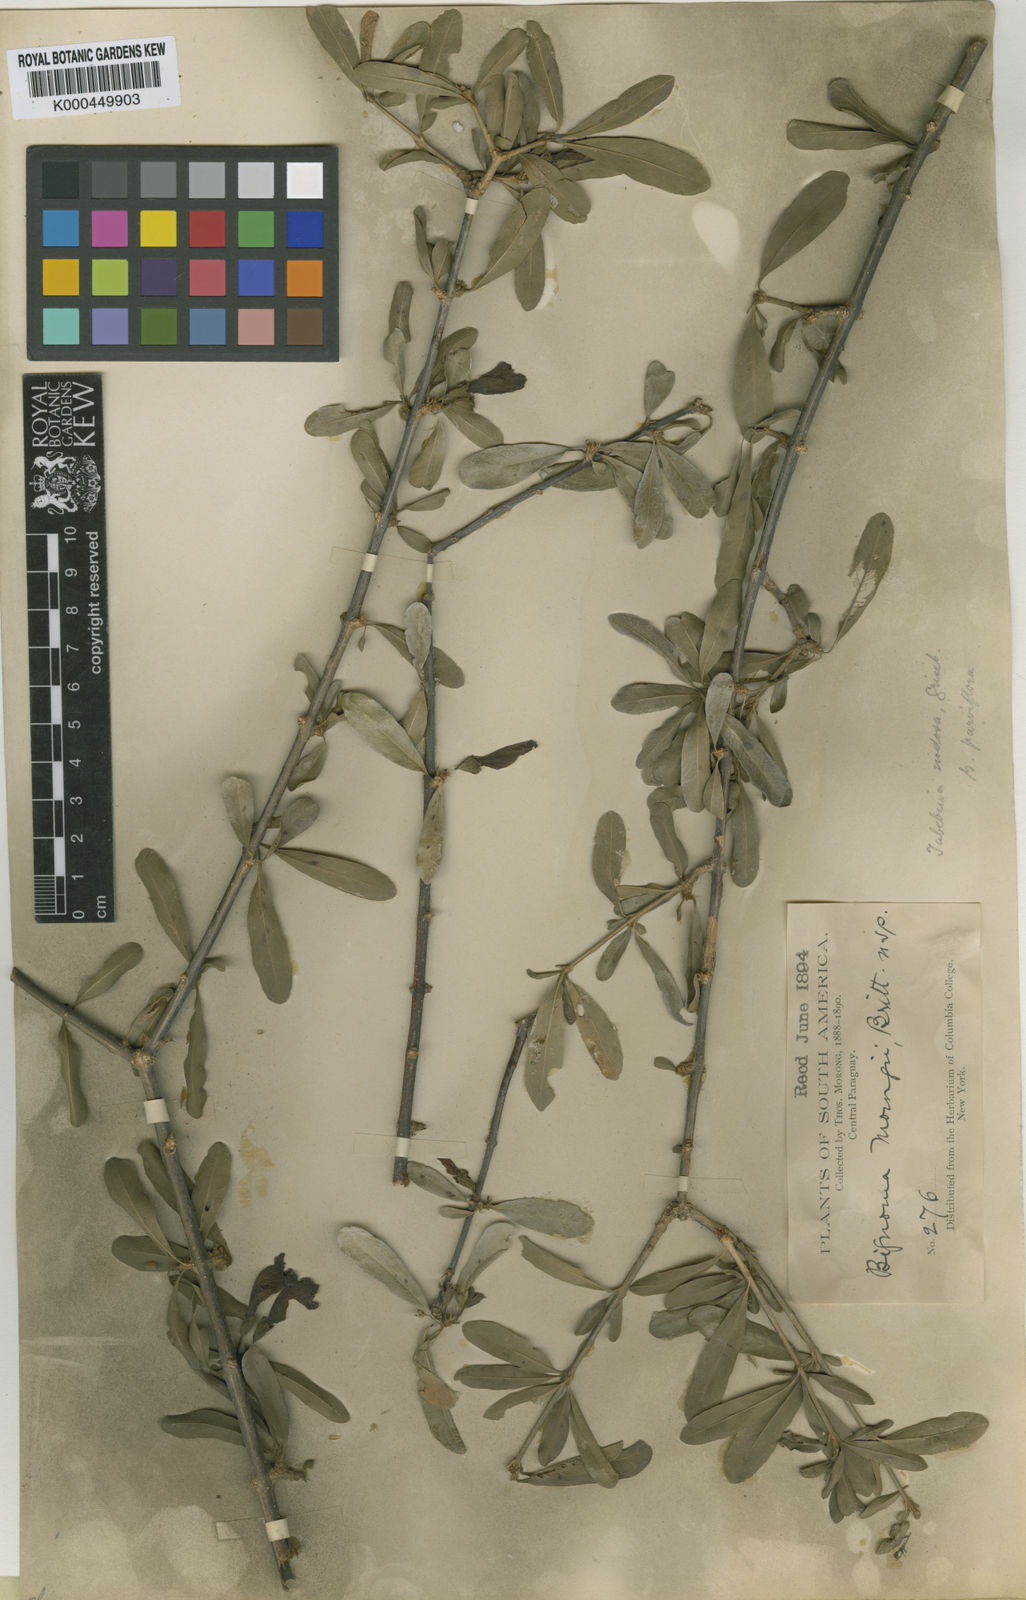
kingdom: Plantae
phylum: Tracheophyta
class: Magnoliopsida
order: Lamiales
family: Bignoniaceae
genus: Tabebuia
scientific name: Tabebuia nodosa
